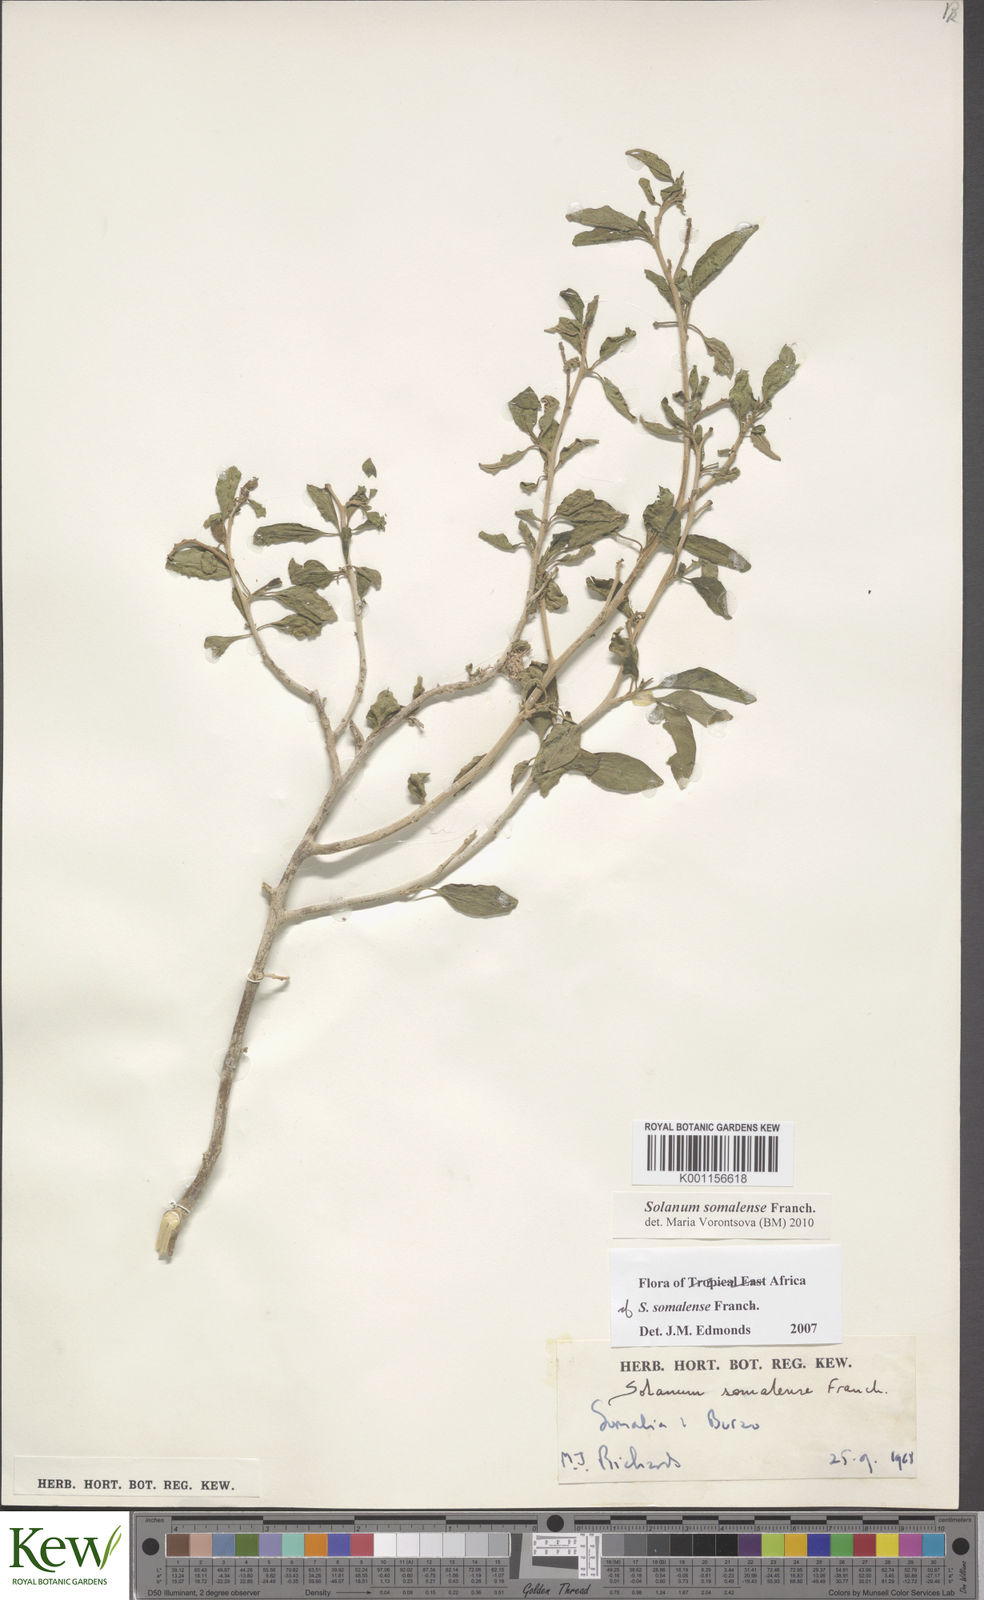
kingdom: Plantae
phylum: Tracheophyta
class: Magnoliopsida
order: Solanales
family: Solanaceae
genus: Solanum
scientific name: Solanum somalense
